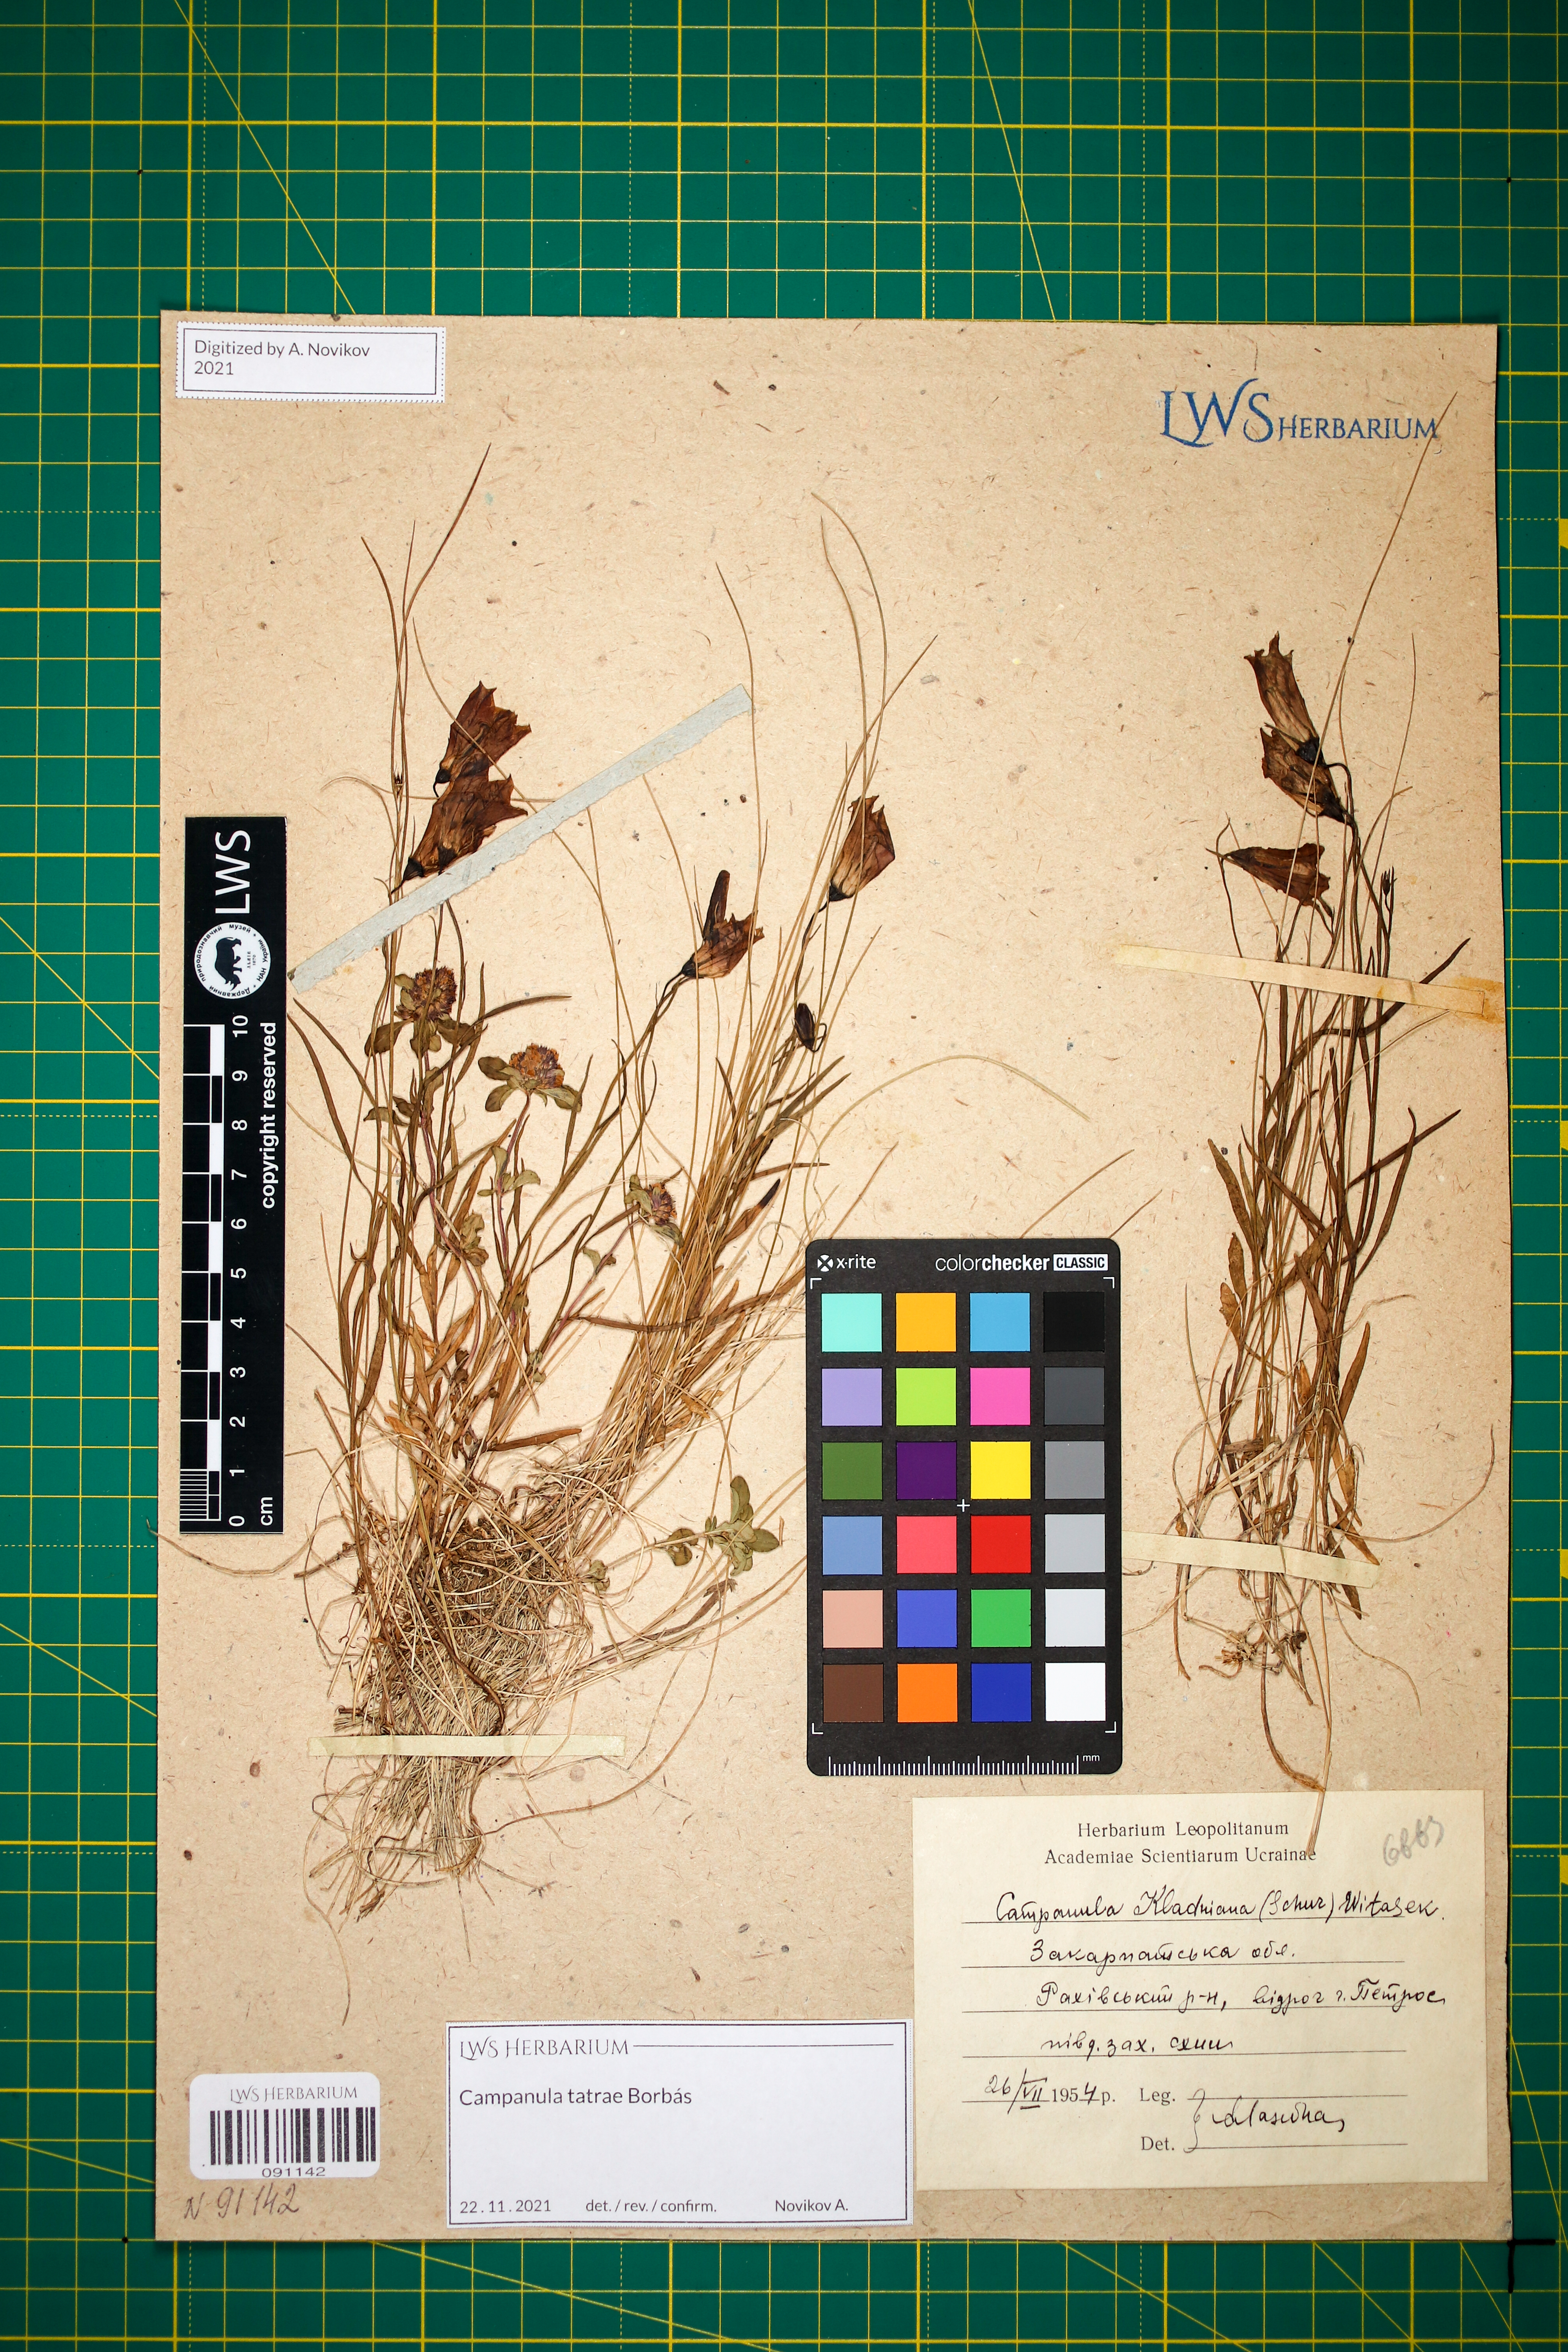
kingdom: Plantae
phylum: Tracheophyta
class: Magnoliopsida
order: Asterales
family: Campanulaceae
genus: Campanula
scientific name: Campanula kladniana
